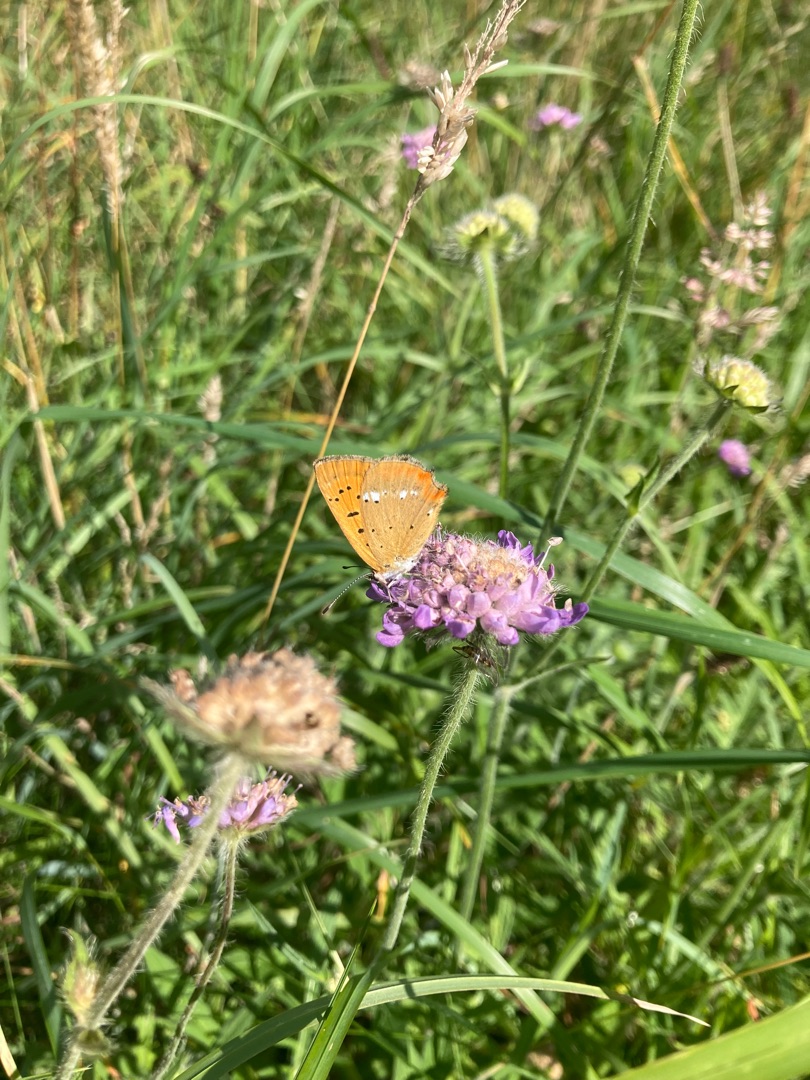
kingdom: Animalia
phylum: Arthropoda
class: Insecta
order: Lepidoptera
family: Lycaenidae
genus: Lycaena
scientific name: Lycaena virgaureae
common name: Dukatsommerfugl
